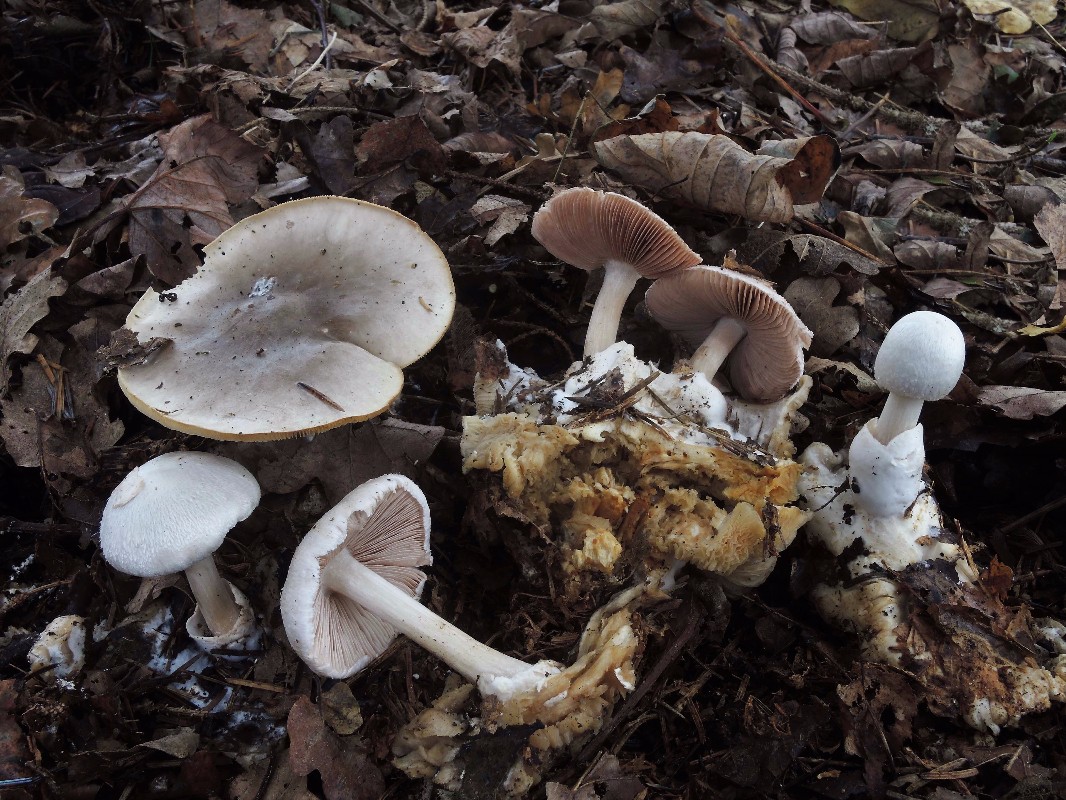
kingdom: Fungi
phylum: Basidiomycota
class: Agaricomycetes
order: Agaricales
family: Pluteaceae
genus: Volvariella
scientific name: Volvariella surrecta
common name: snyltende posesvamp
